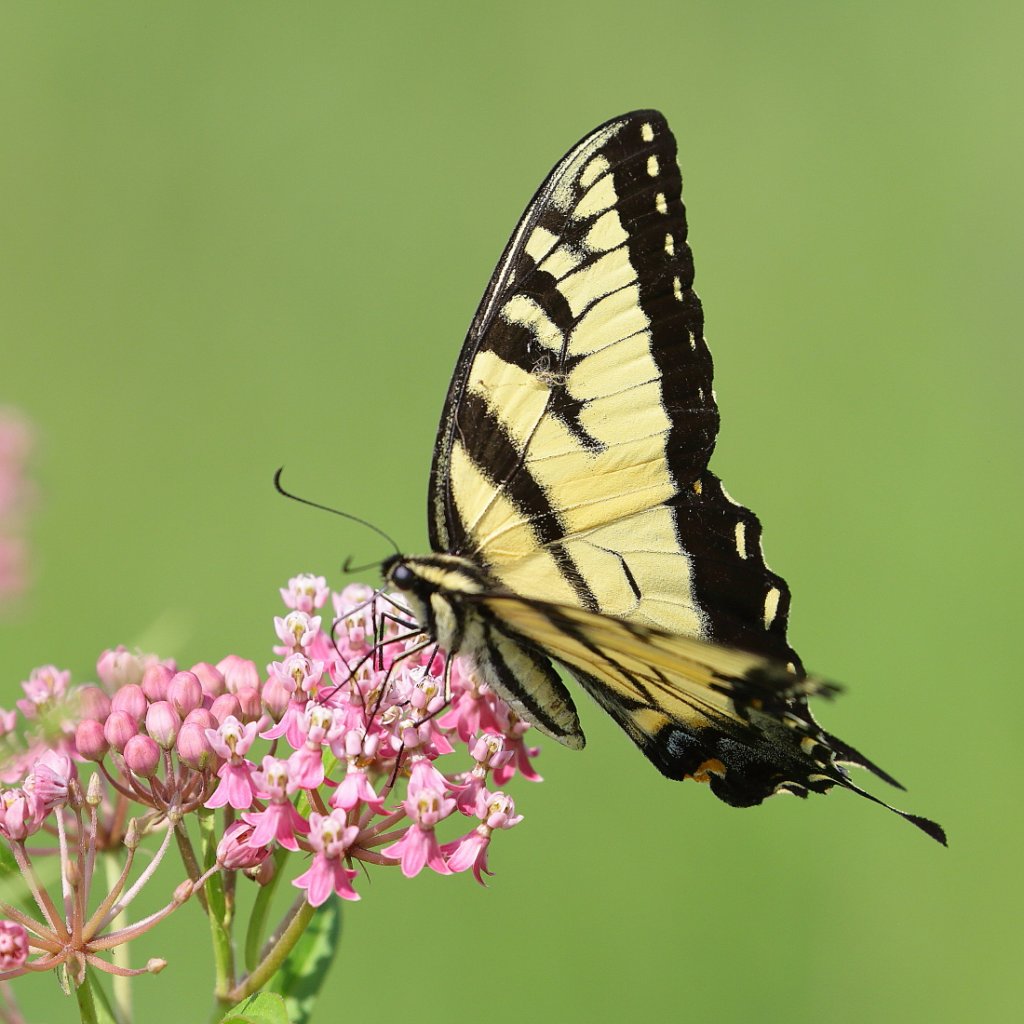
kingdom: Animalia
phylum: Arthropoda
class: Insecta
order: Lepidoptera
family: Papilionidae
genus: Pterourus
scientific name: Pterourus glaucus
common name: Eastern Tiger Swallowtail
